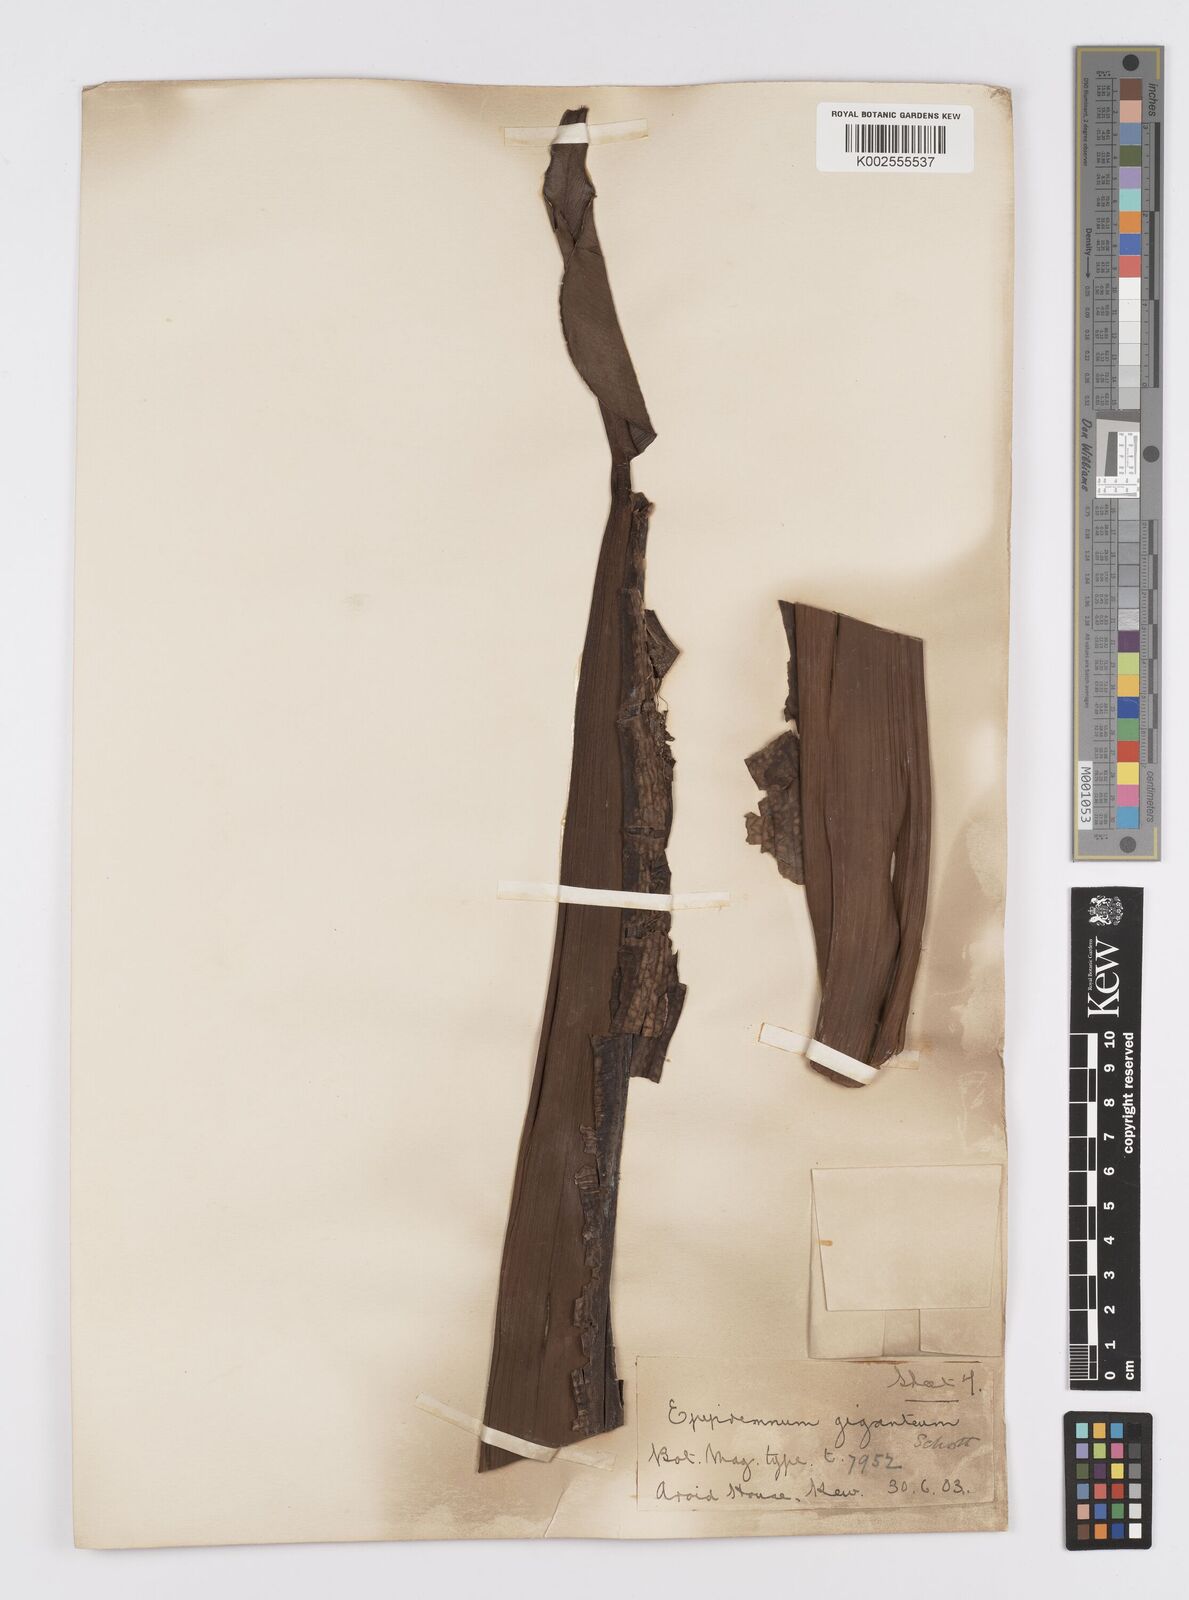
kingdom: Plantae
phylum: Tracheophyta
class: Liliopsida
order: Alismatales
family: Araceae
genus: Epipremnum
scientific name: Epipremnum giganteum
